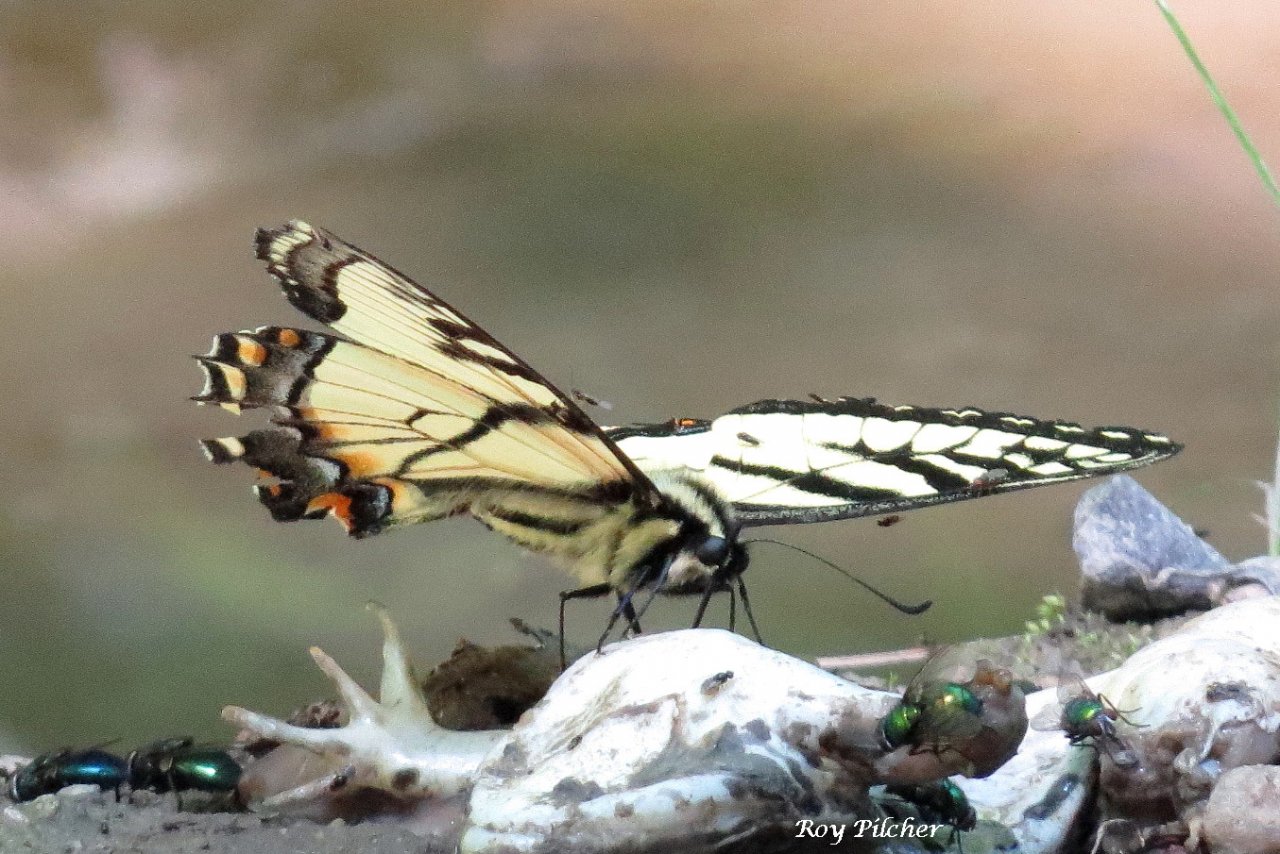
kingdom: Animalia
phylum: Arthropoda
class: Insecta
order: Lepidoptera
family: Papilionidae
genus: Pterourus
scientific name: Pterourus canadensis
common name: Canadian Tiger Swallowtail
